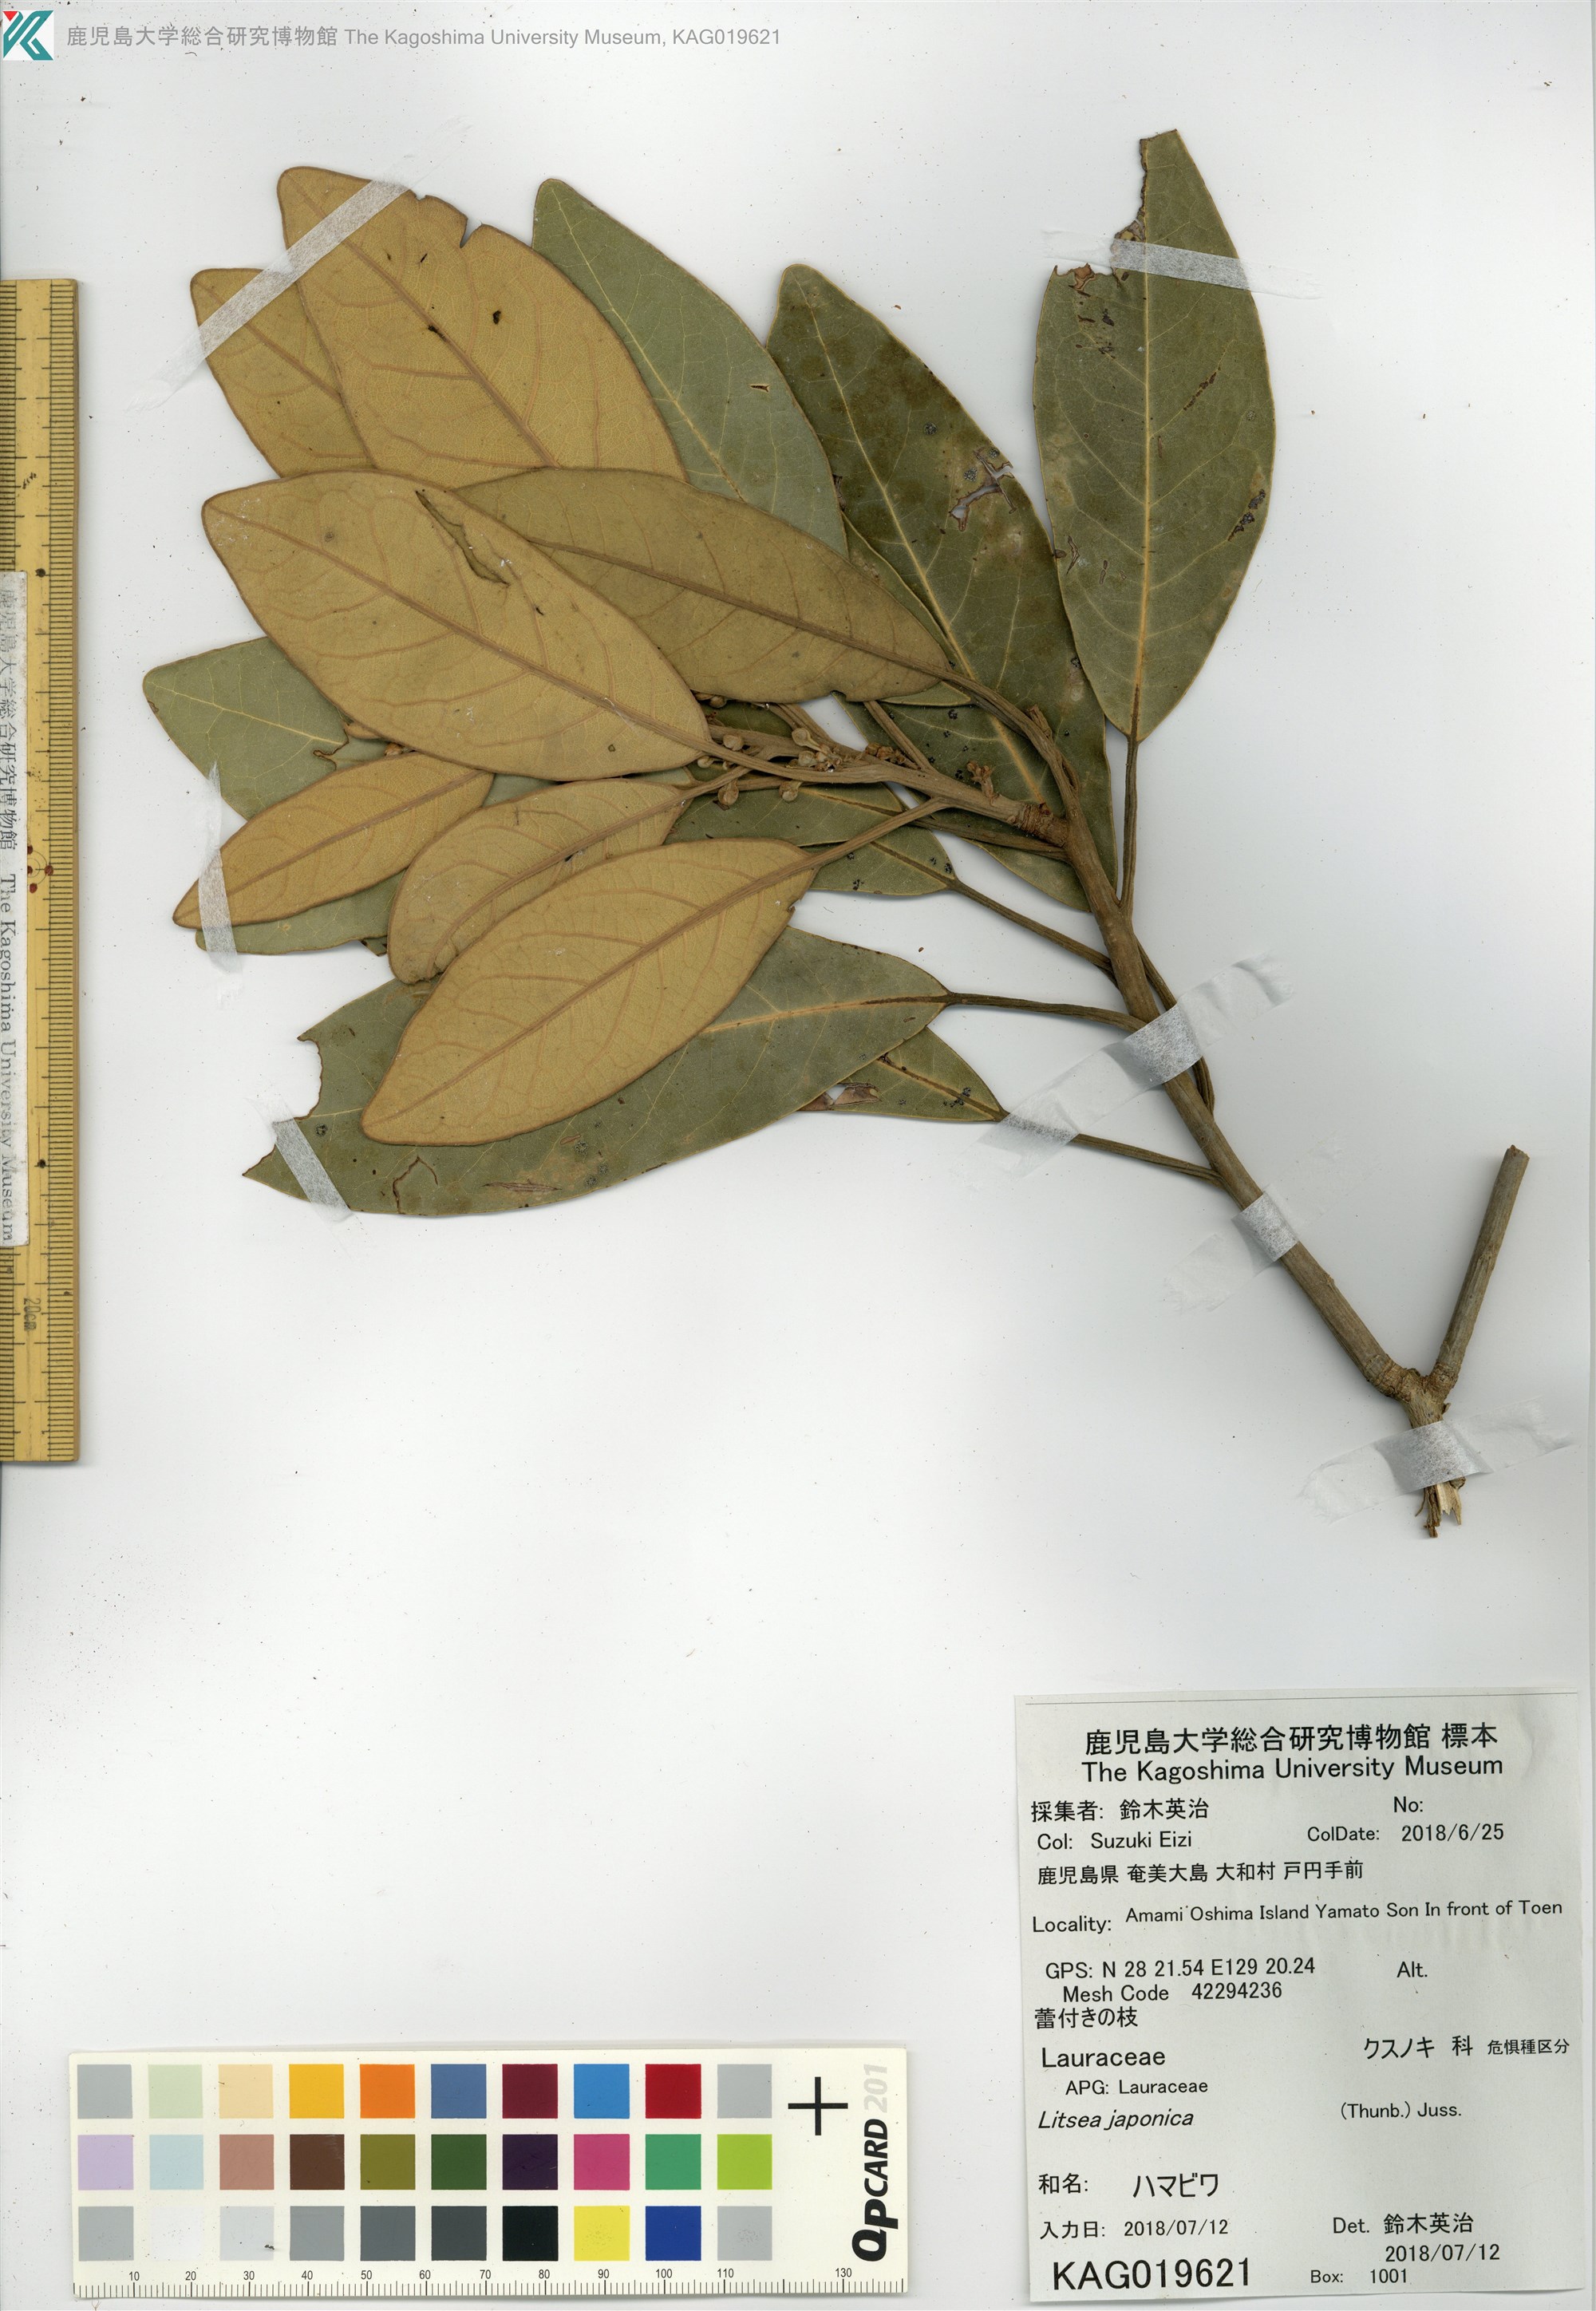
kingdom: Plantae
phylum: Tracheophyta
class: Magnoliopsida
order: Laurales
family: Lauraceae
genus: Litsea
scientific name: Litsea japonica
